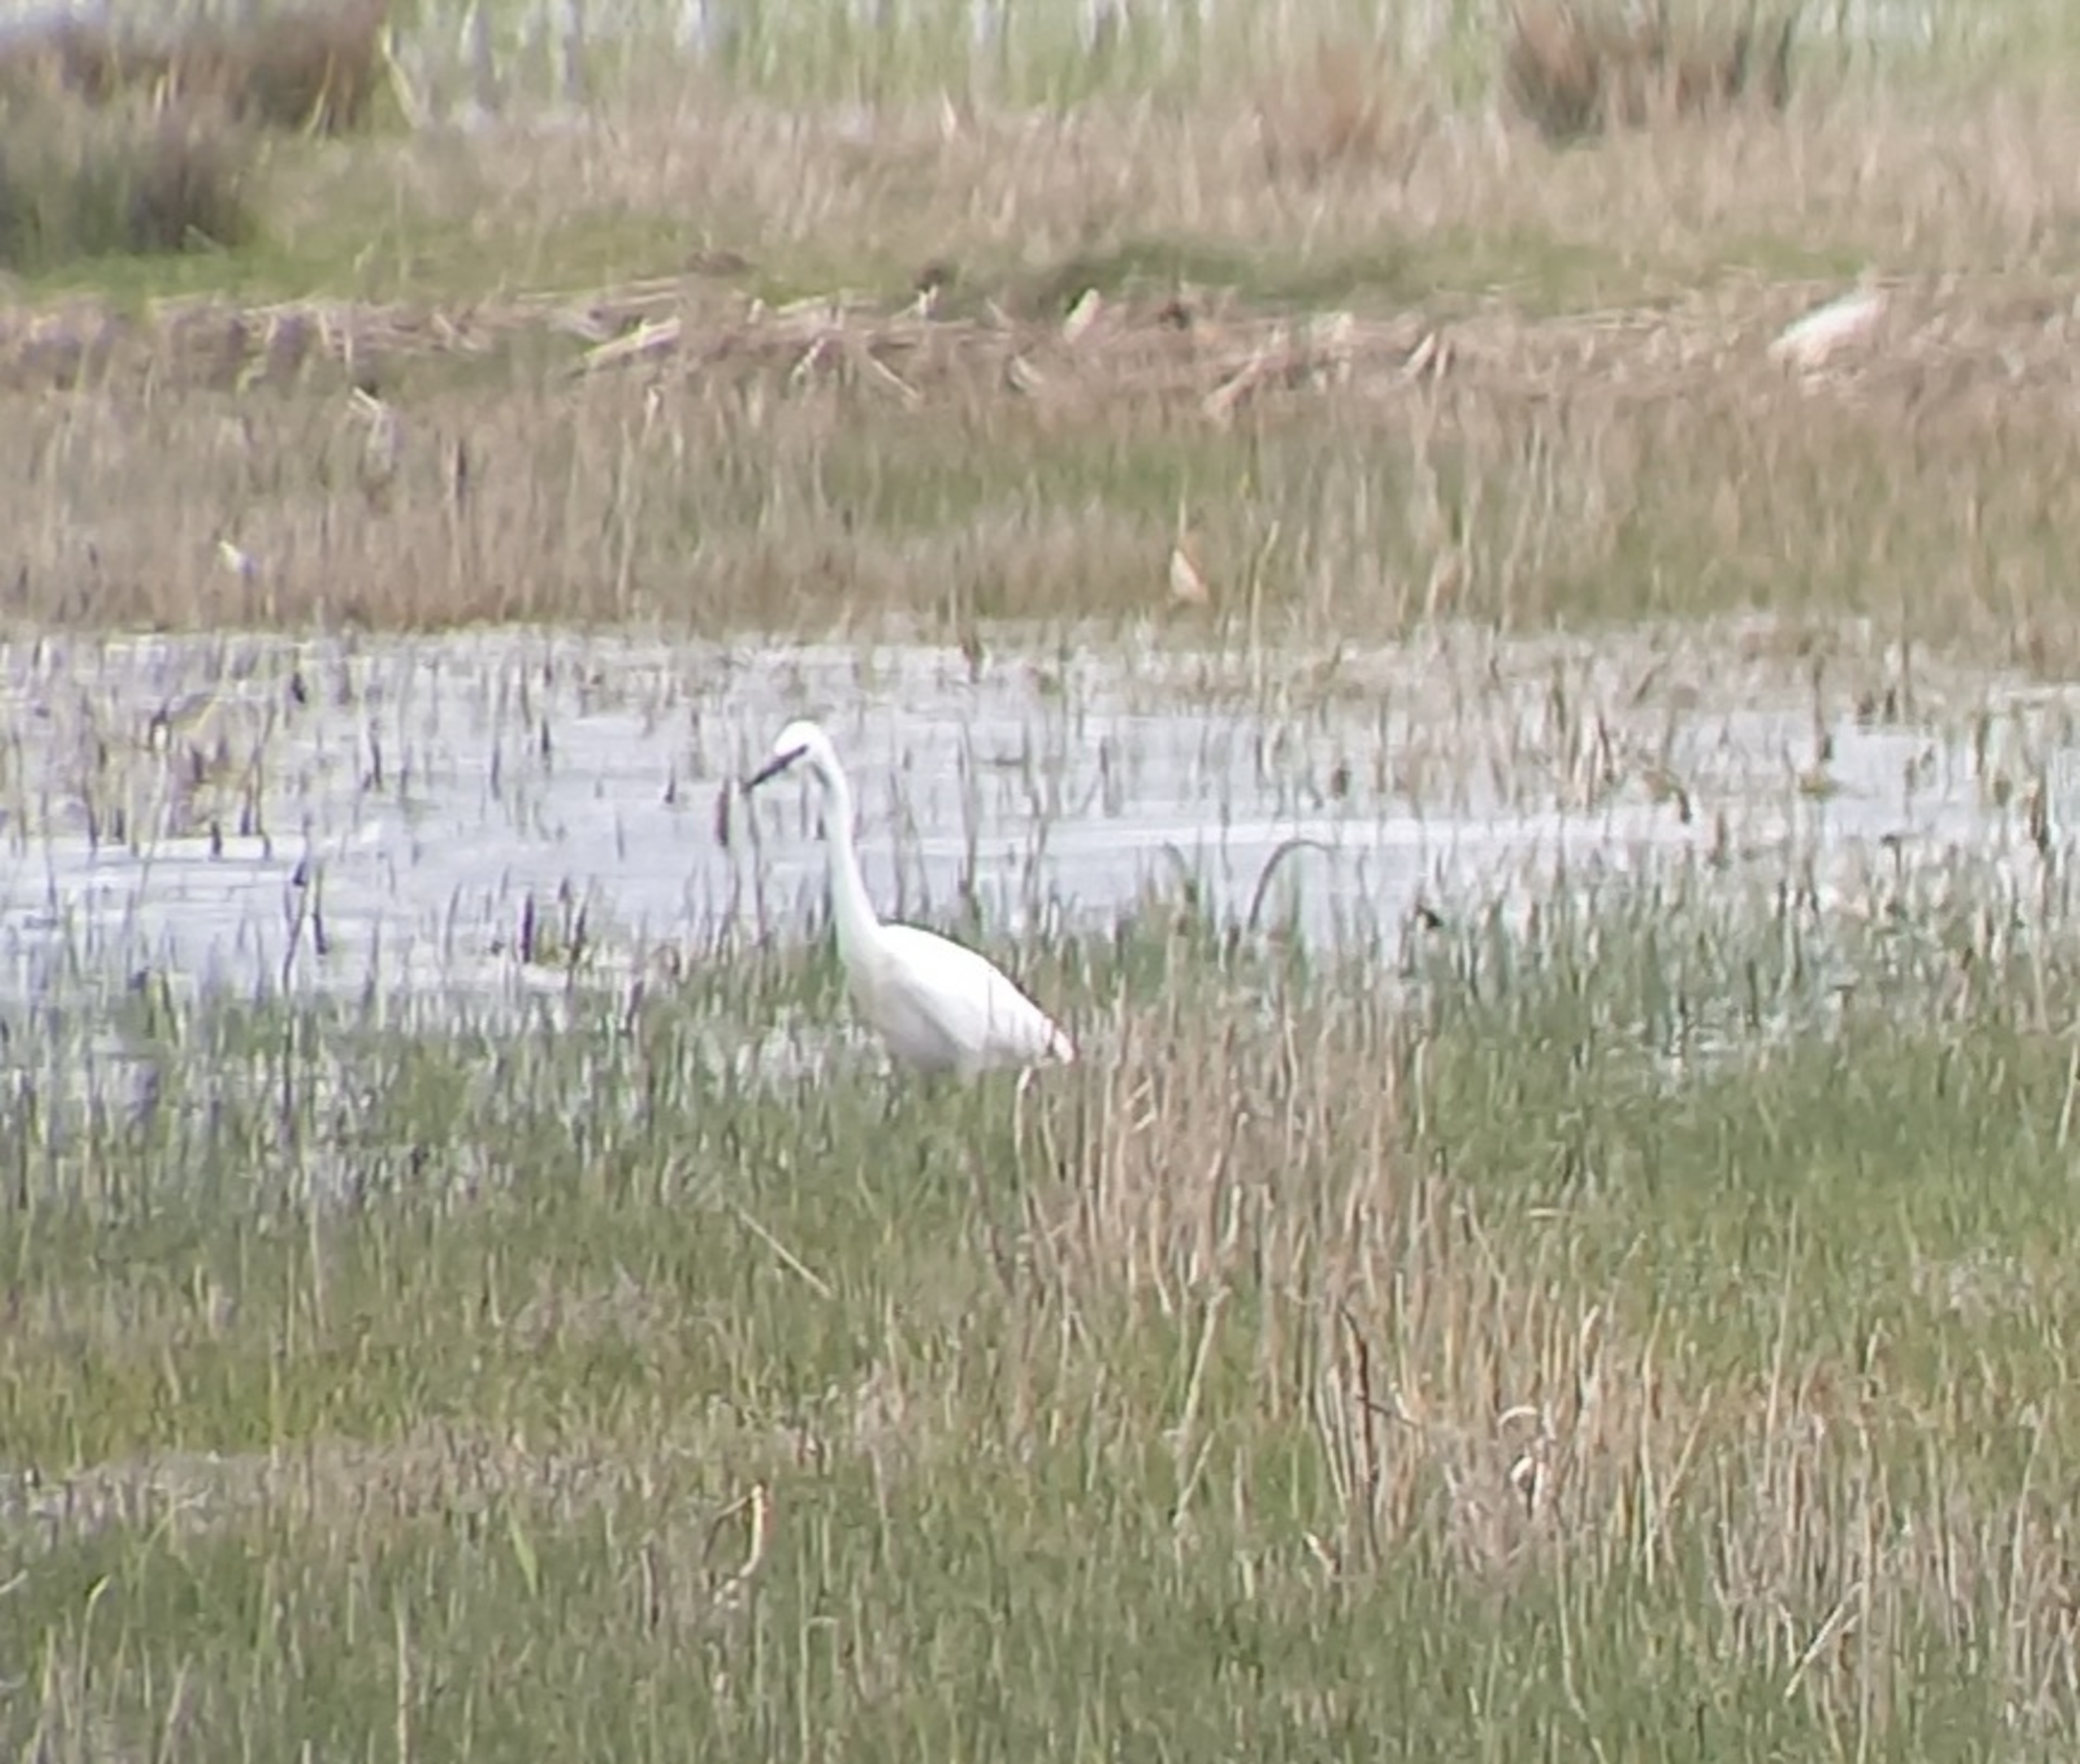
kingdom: Animalia
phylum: Chordata
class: Aves
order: Pelecaniformes
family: Ardeidae
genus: Egretta
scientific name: Egretta garzetta
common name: Silkehejre
